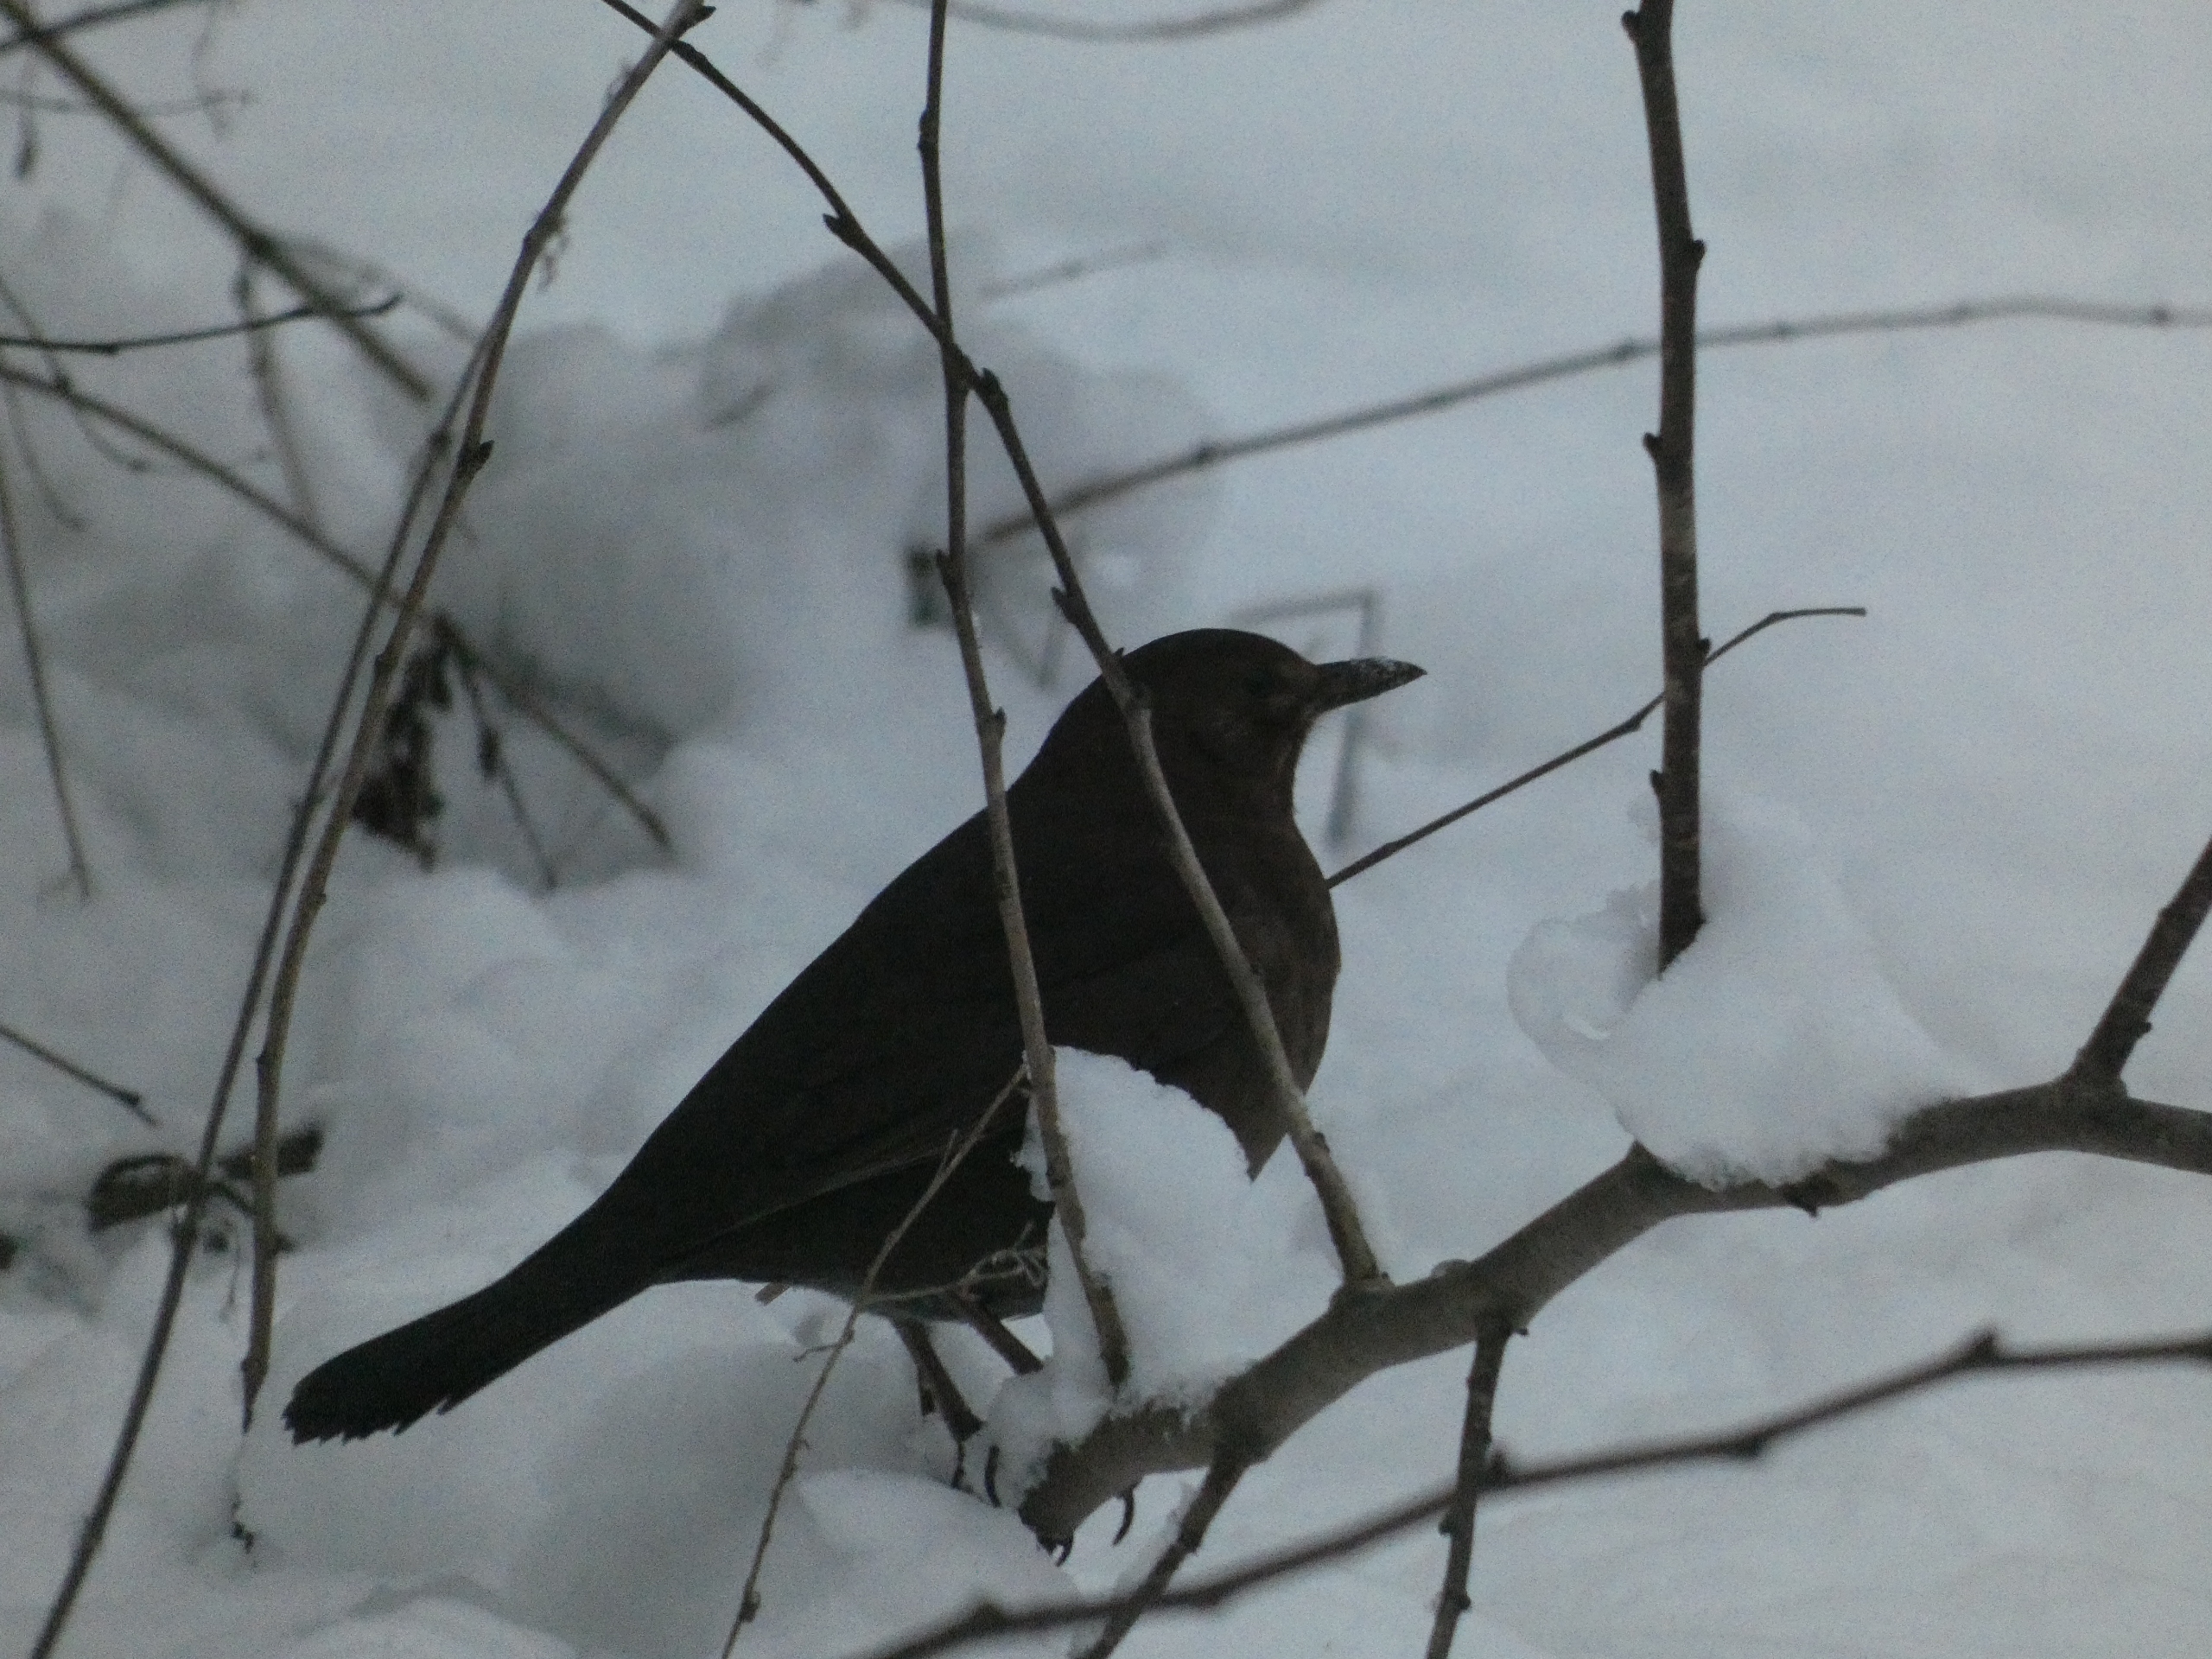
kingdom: Animalia
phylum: Chordata
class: Aves
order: Passeriformes
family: Turdidae
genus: Turdus
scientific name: Turdus merula
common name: Solsort
